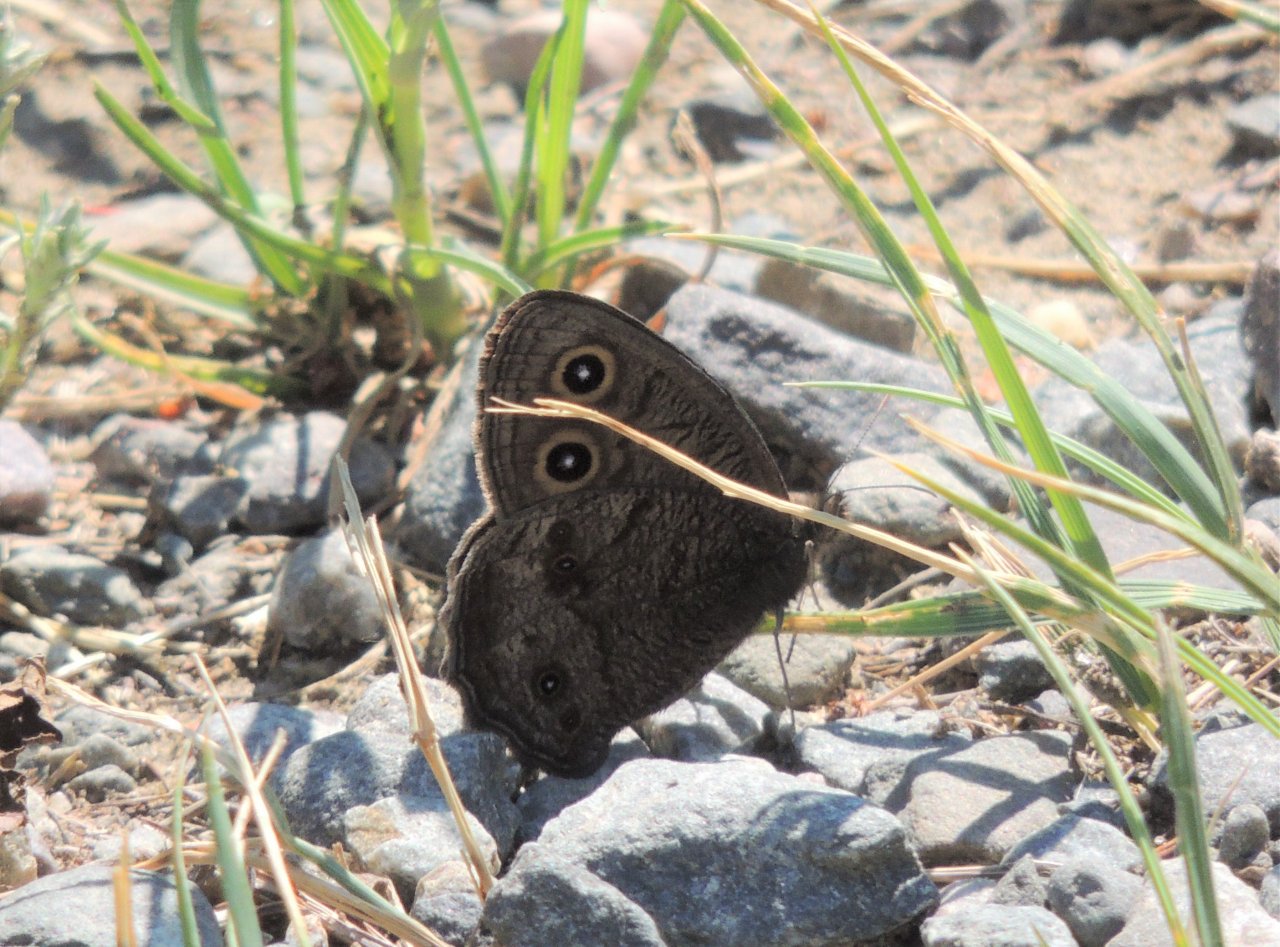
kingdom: Animalia
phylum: Arthropoda
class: Insecta
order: Lepidoptera
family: Nymphalidae
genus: Cercyonis
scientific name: Cercyonis pegala
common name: Common Wood-Nymph
